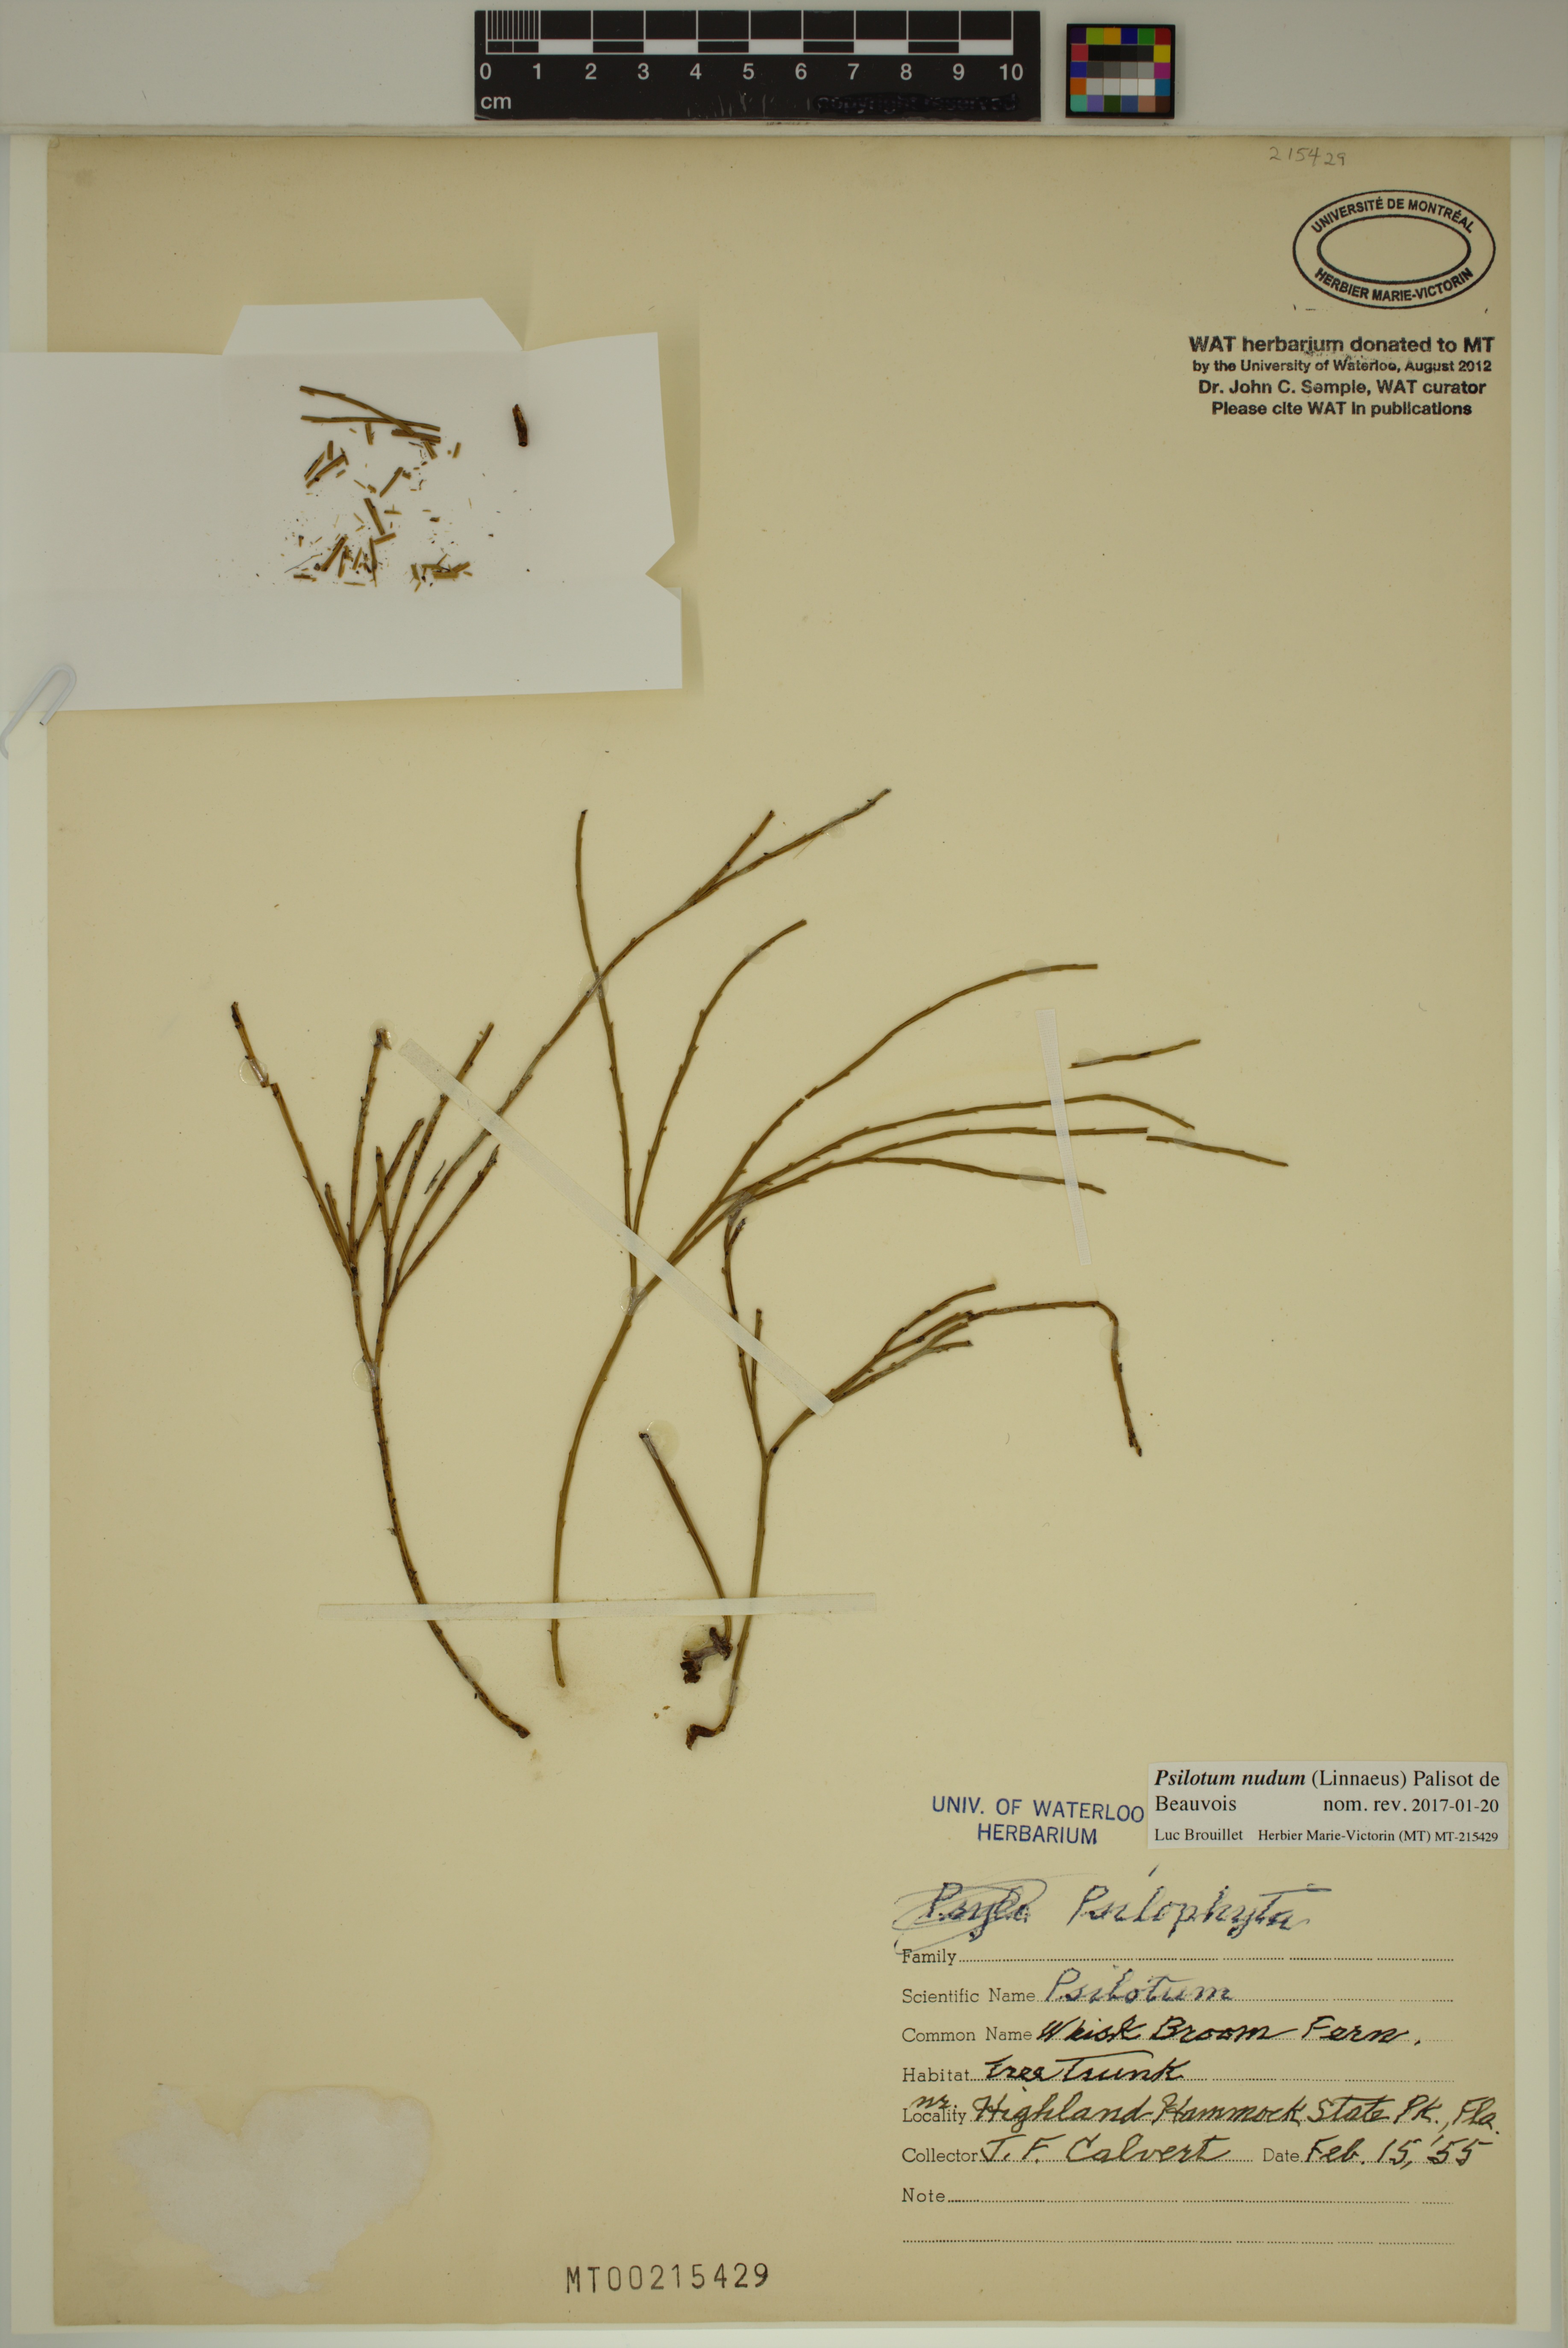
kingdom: Plantae
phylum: Tracheophyta
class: Polypodiopsida
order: Psilotales
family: Psilotaceae
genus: Psilotum
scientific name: Psilotum nudum
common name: Skeleton fork fern
